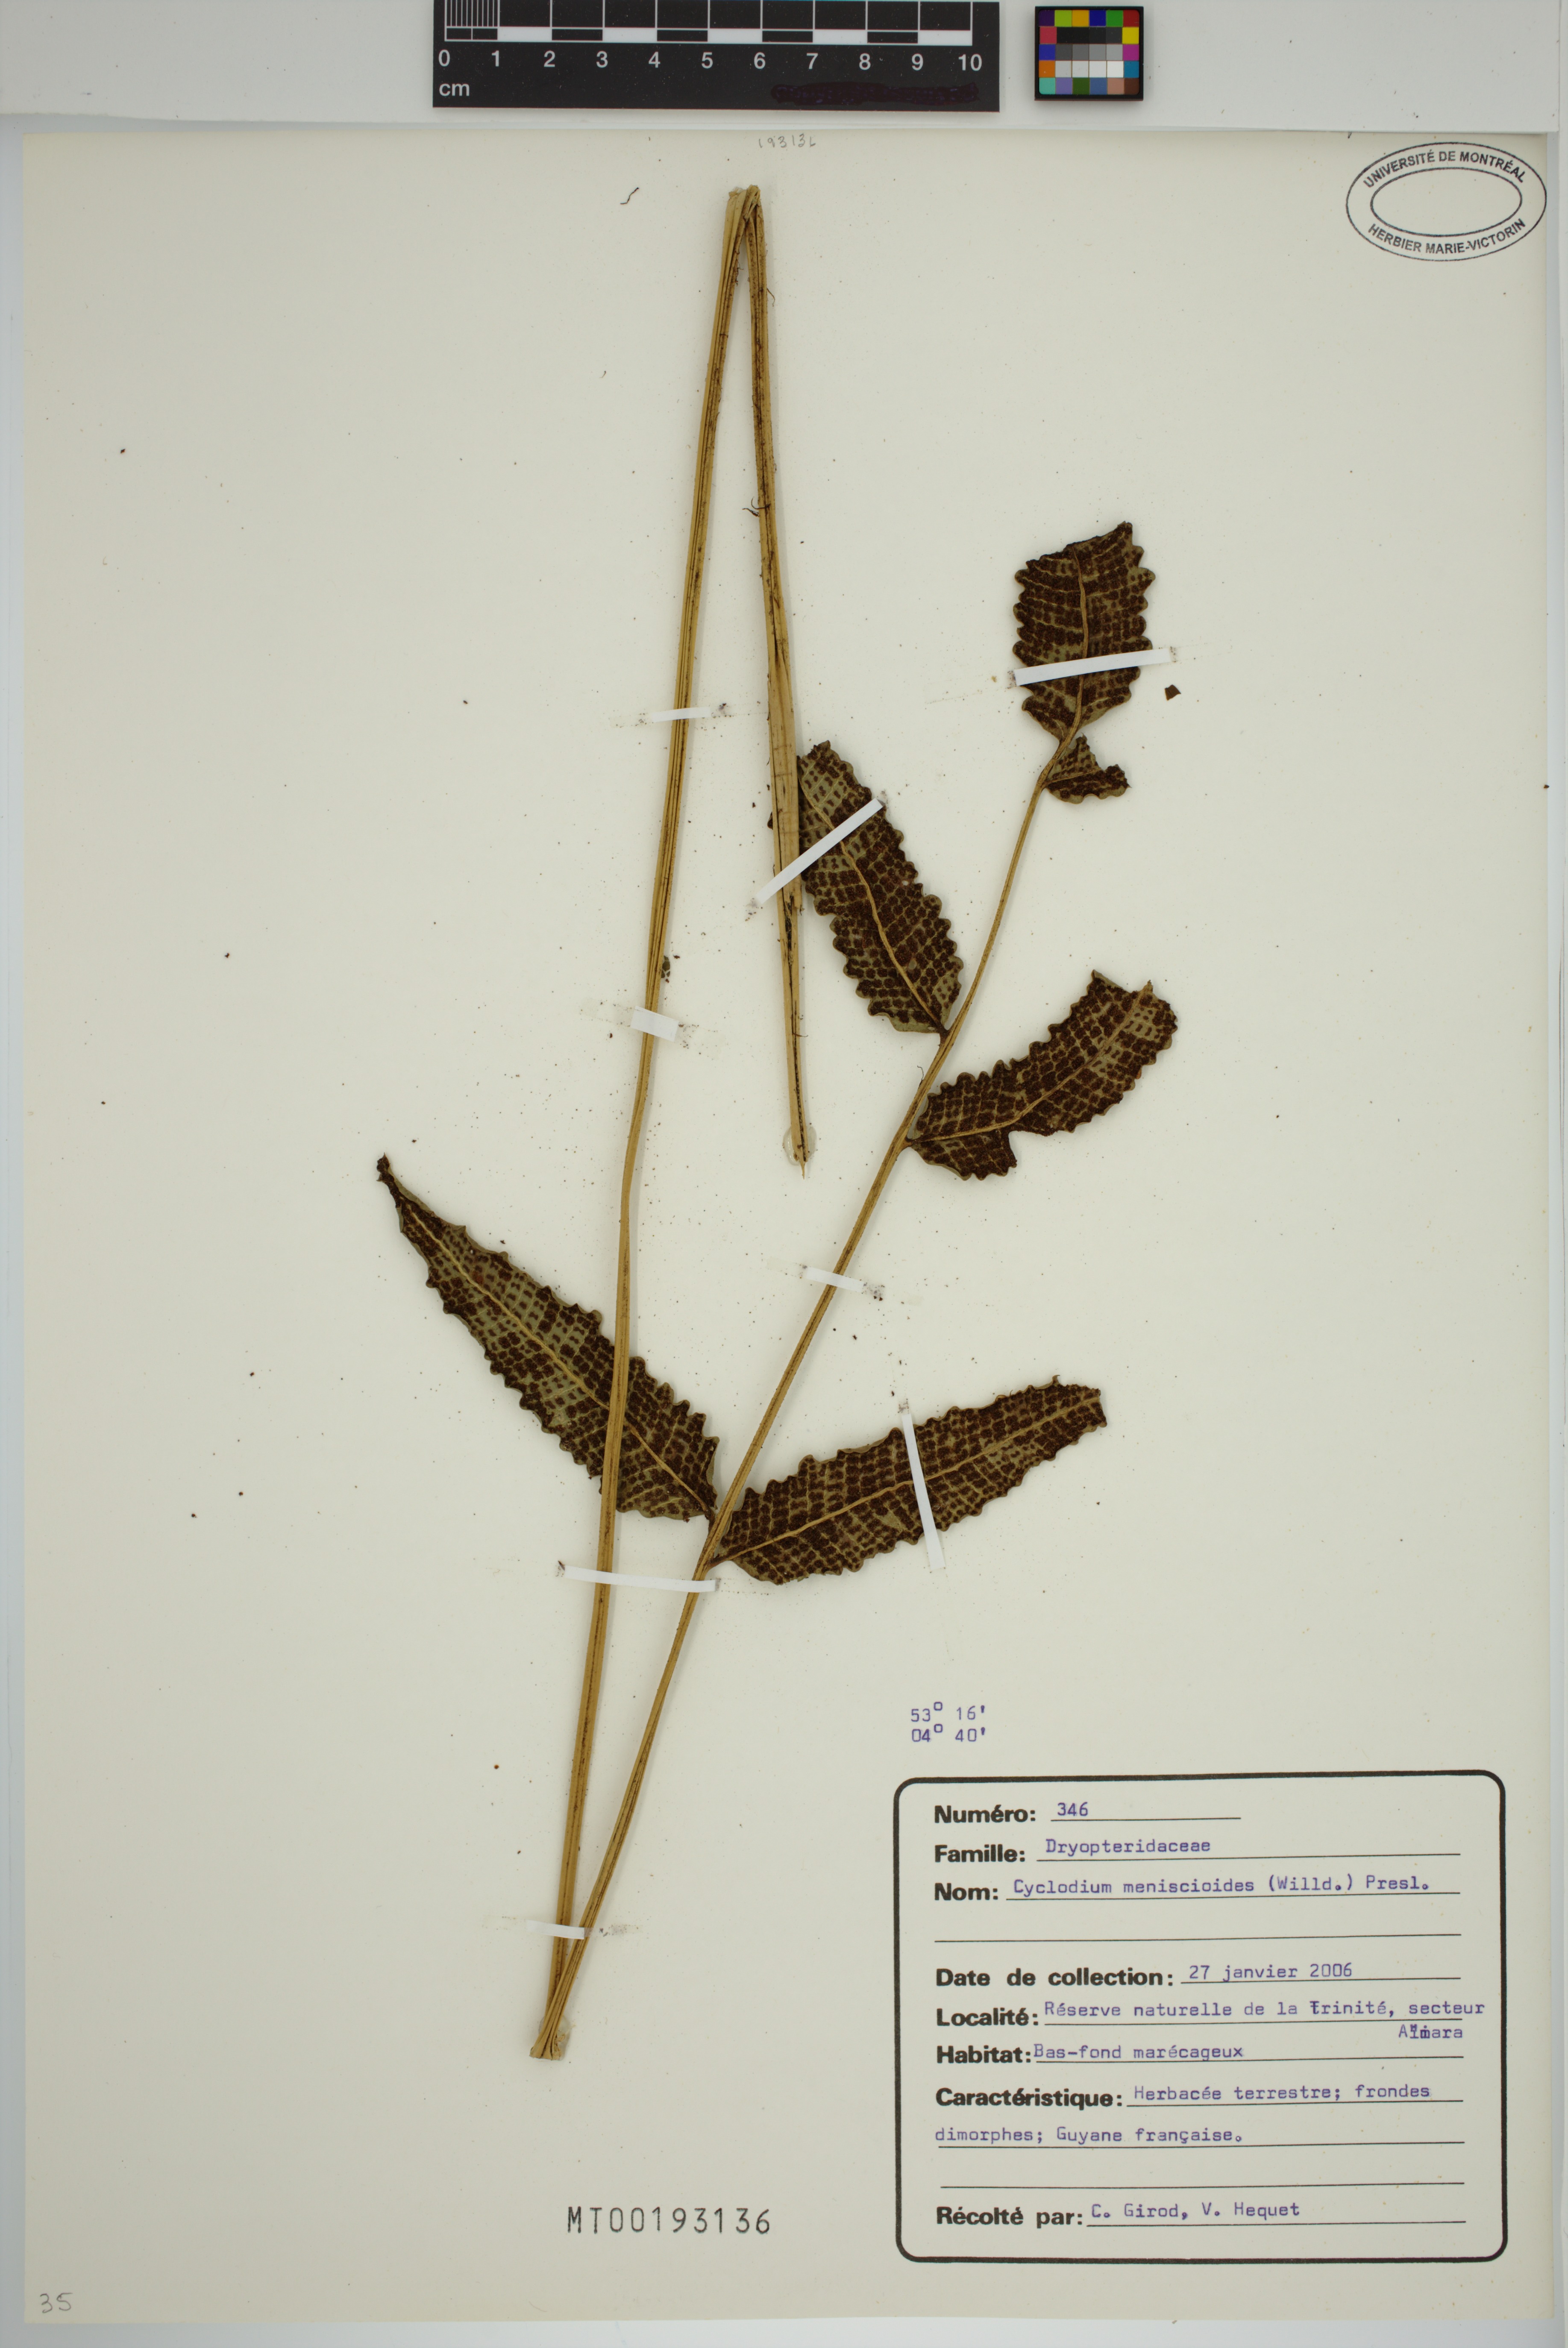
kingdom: Plantae
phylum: Tracheophyta
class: Polypodiopsida
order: Polypodiales
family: Dryopteridaceae
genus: Cyclodium
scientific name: Cyclodium meniscioides
